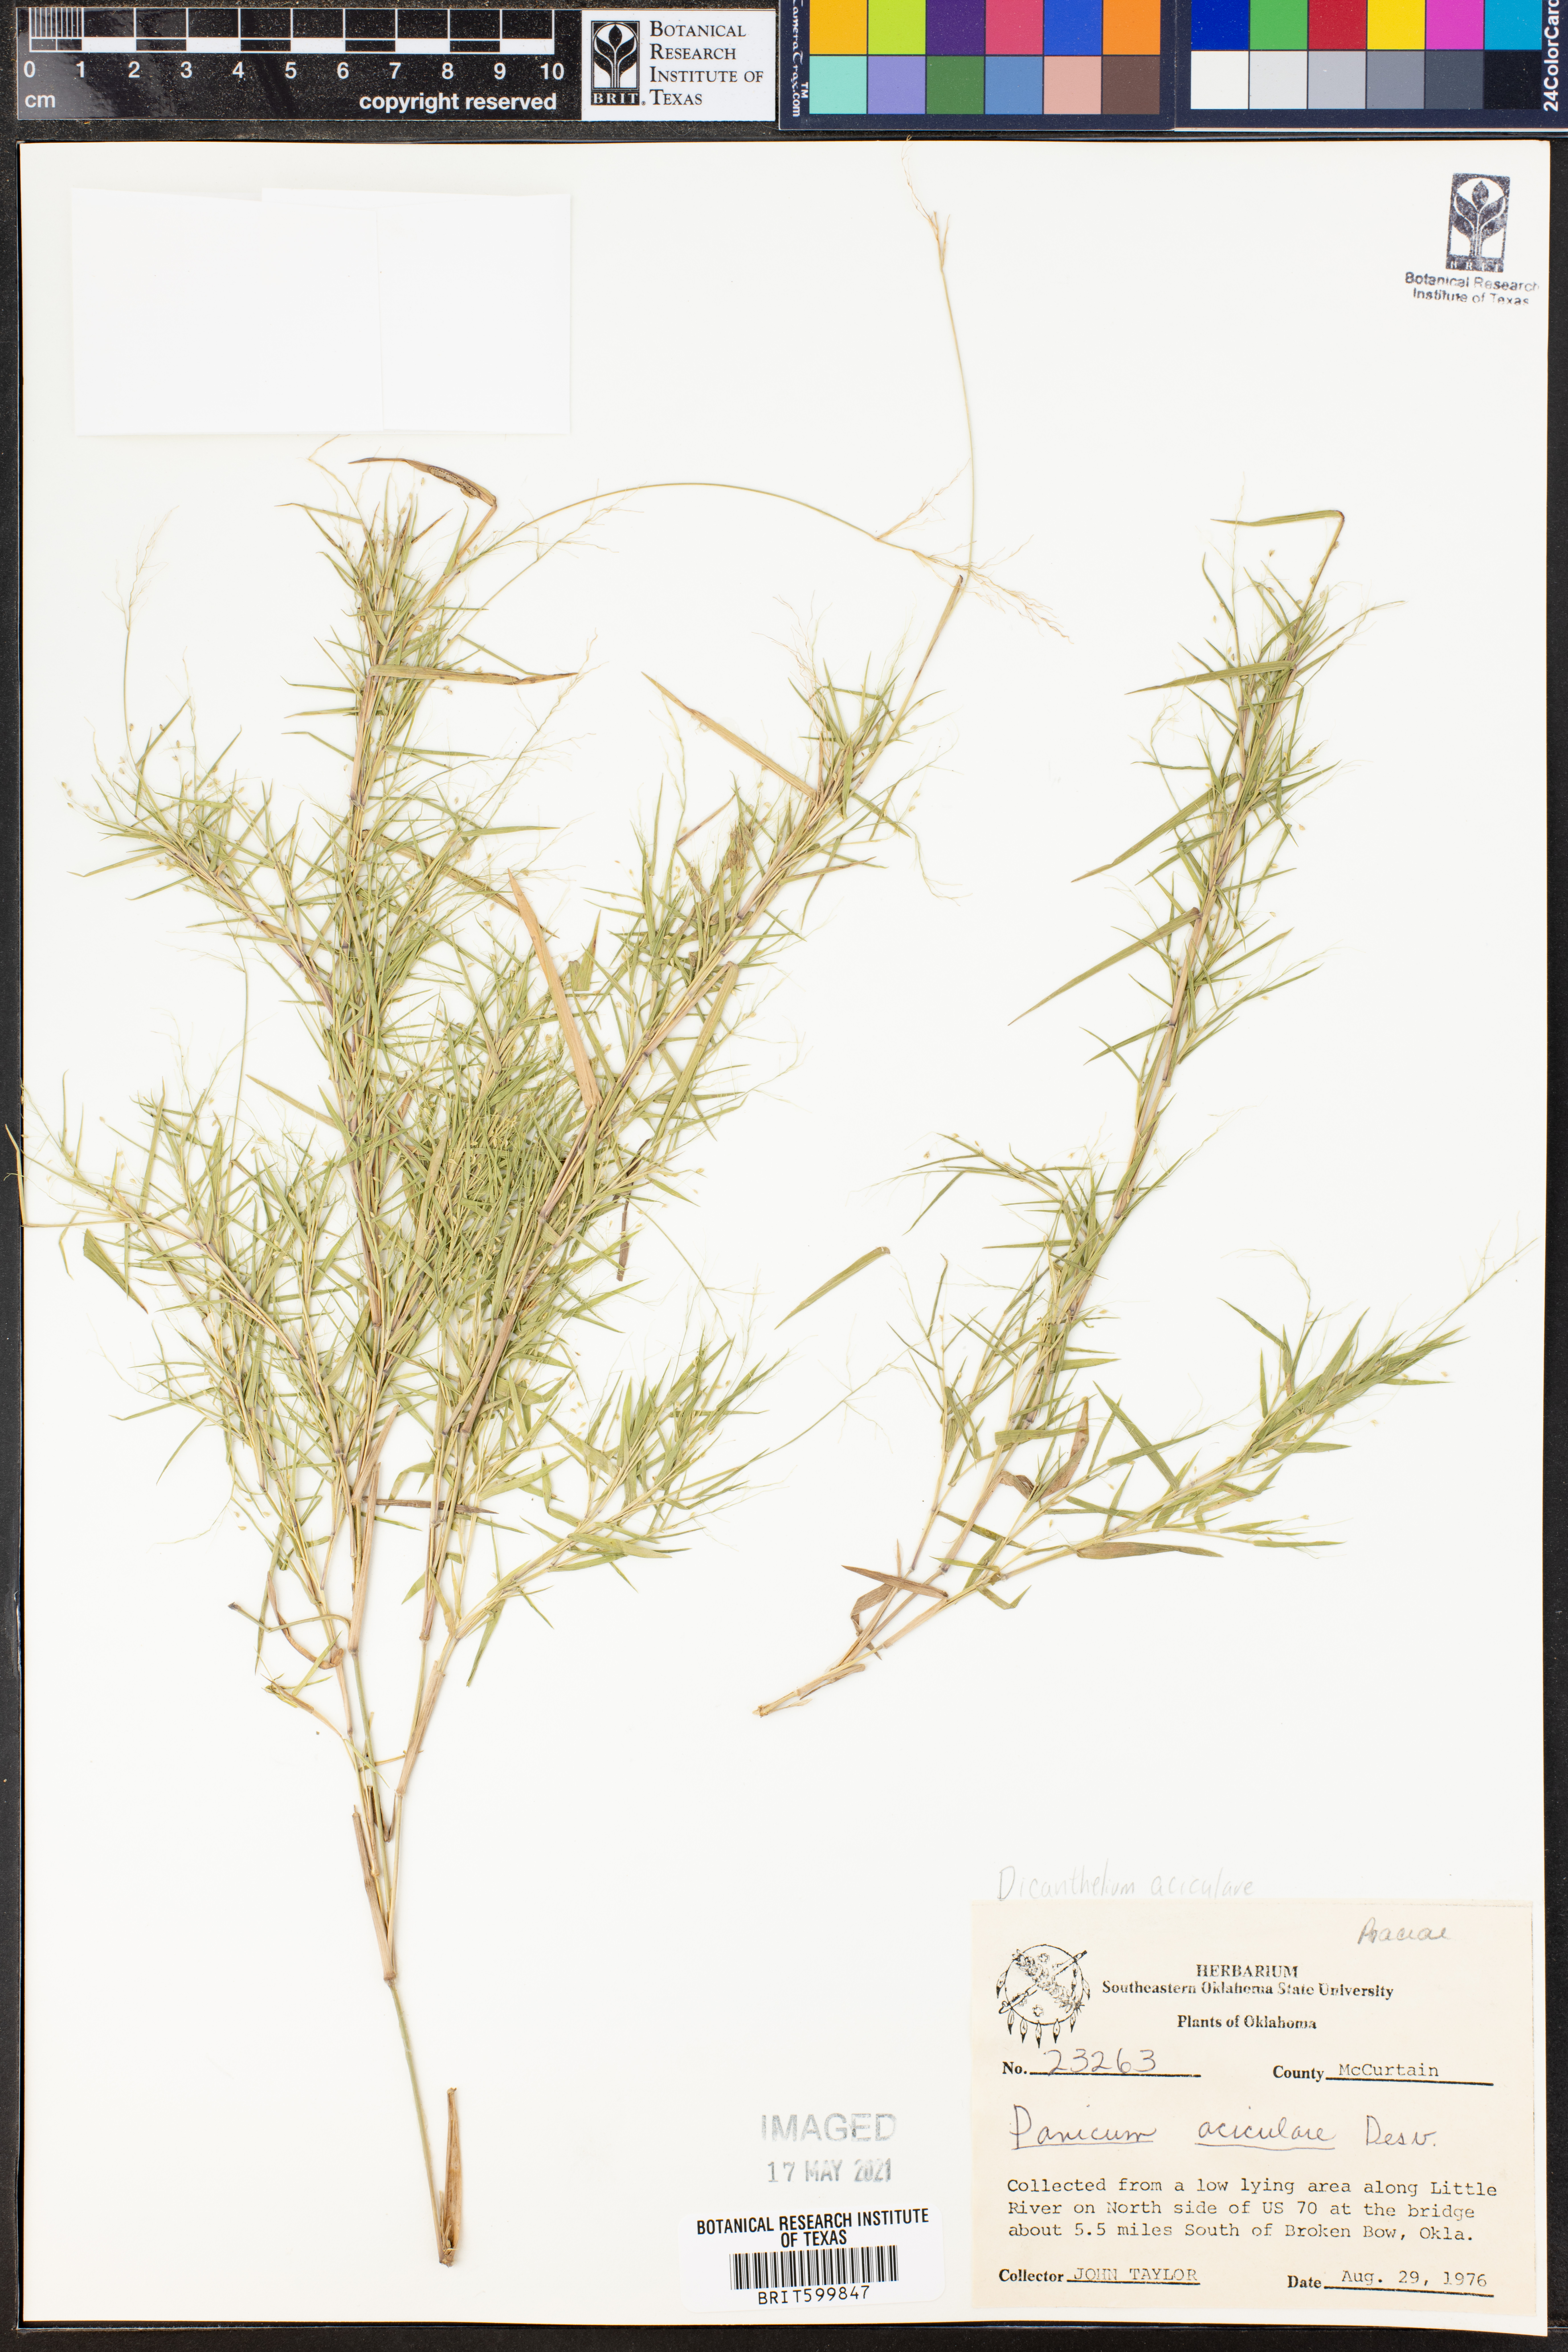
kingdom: Plantae
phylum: Tracheophyta
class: Liliopsida
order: Poales
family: Poaceae
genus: Dichanthelium
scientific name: Dichanthelium aciculare
